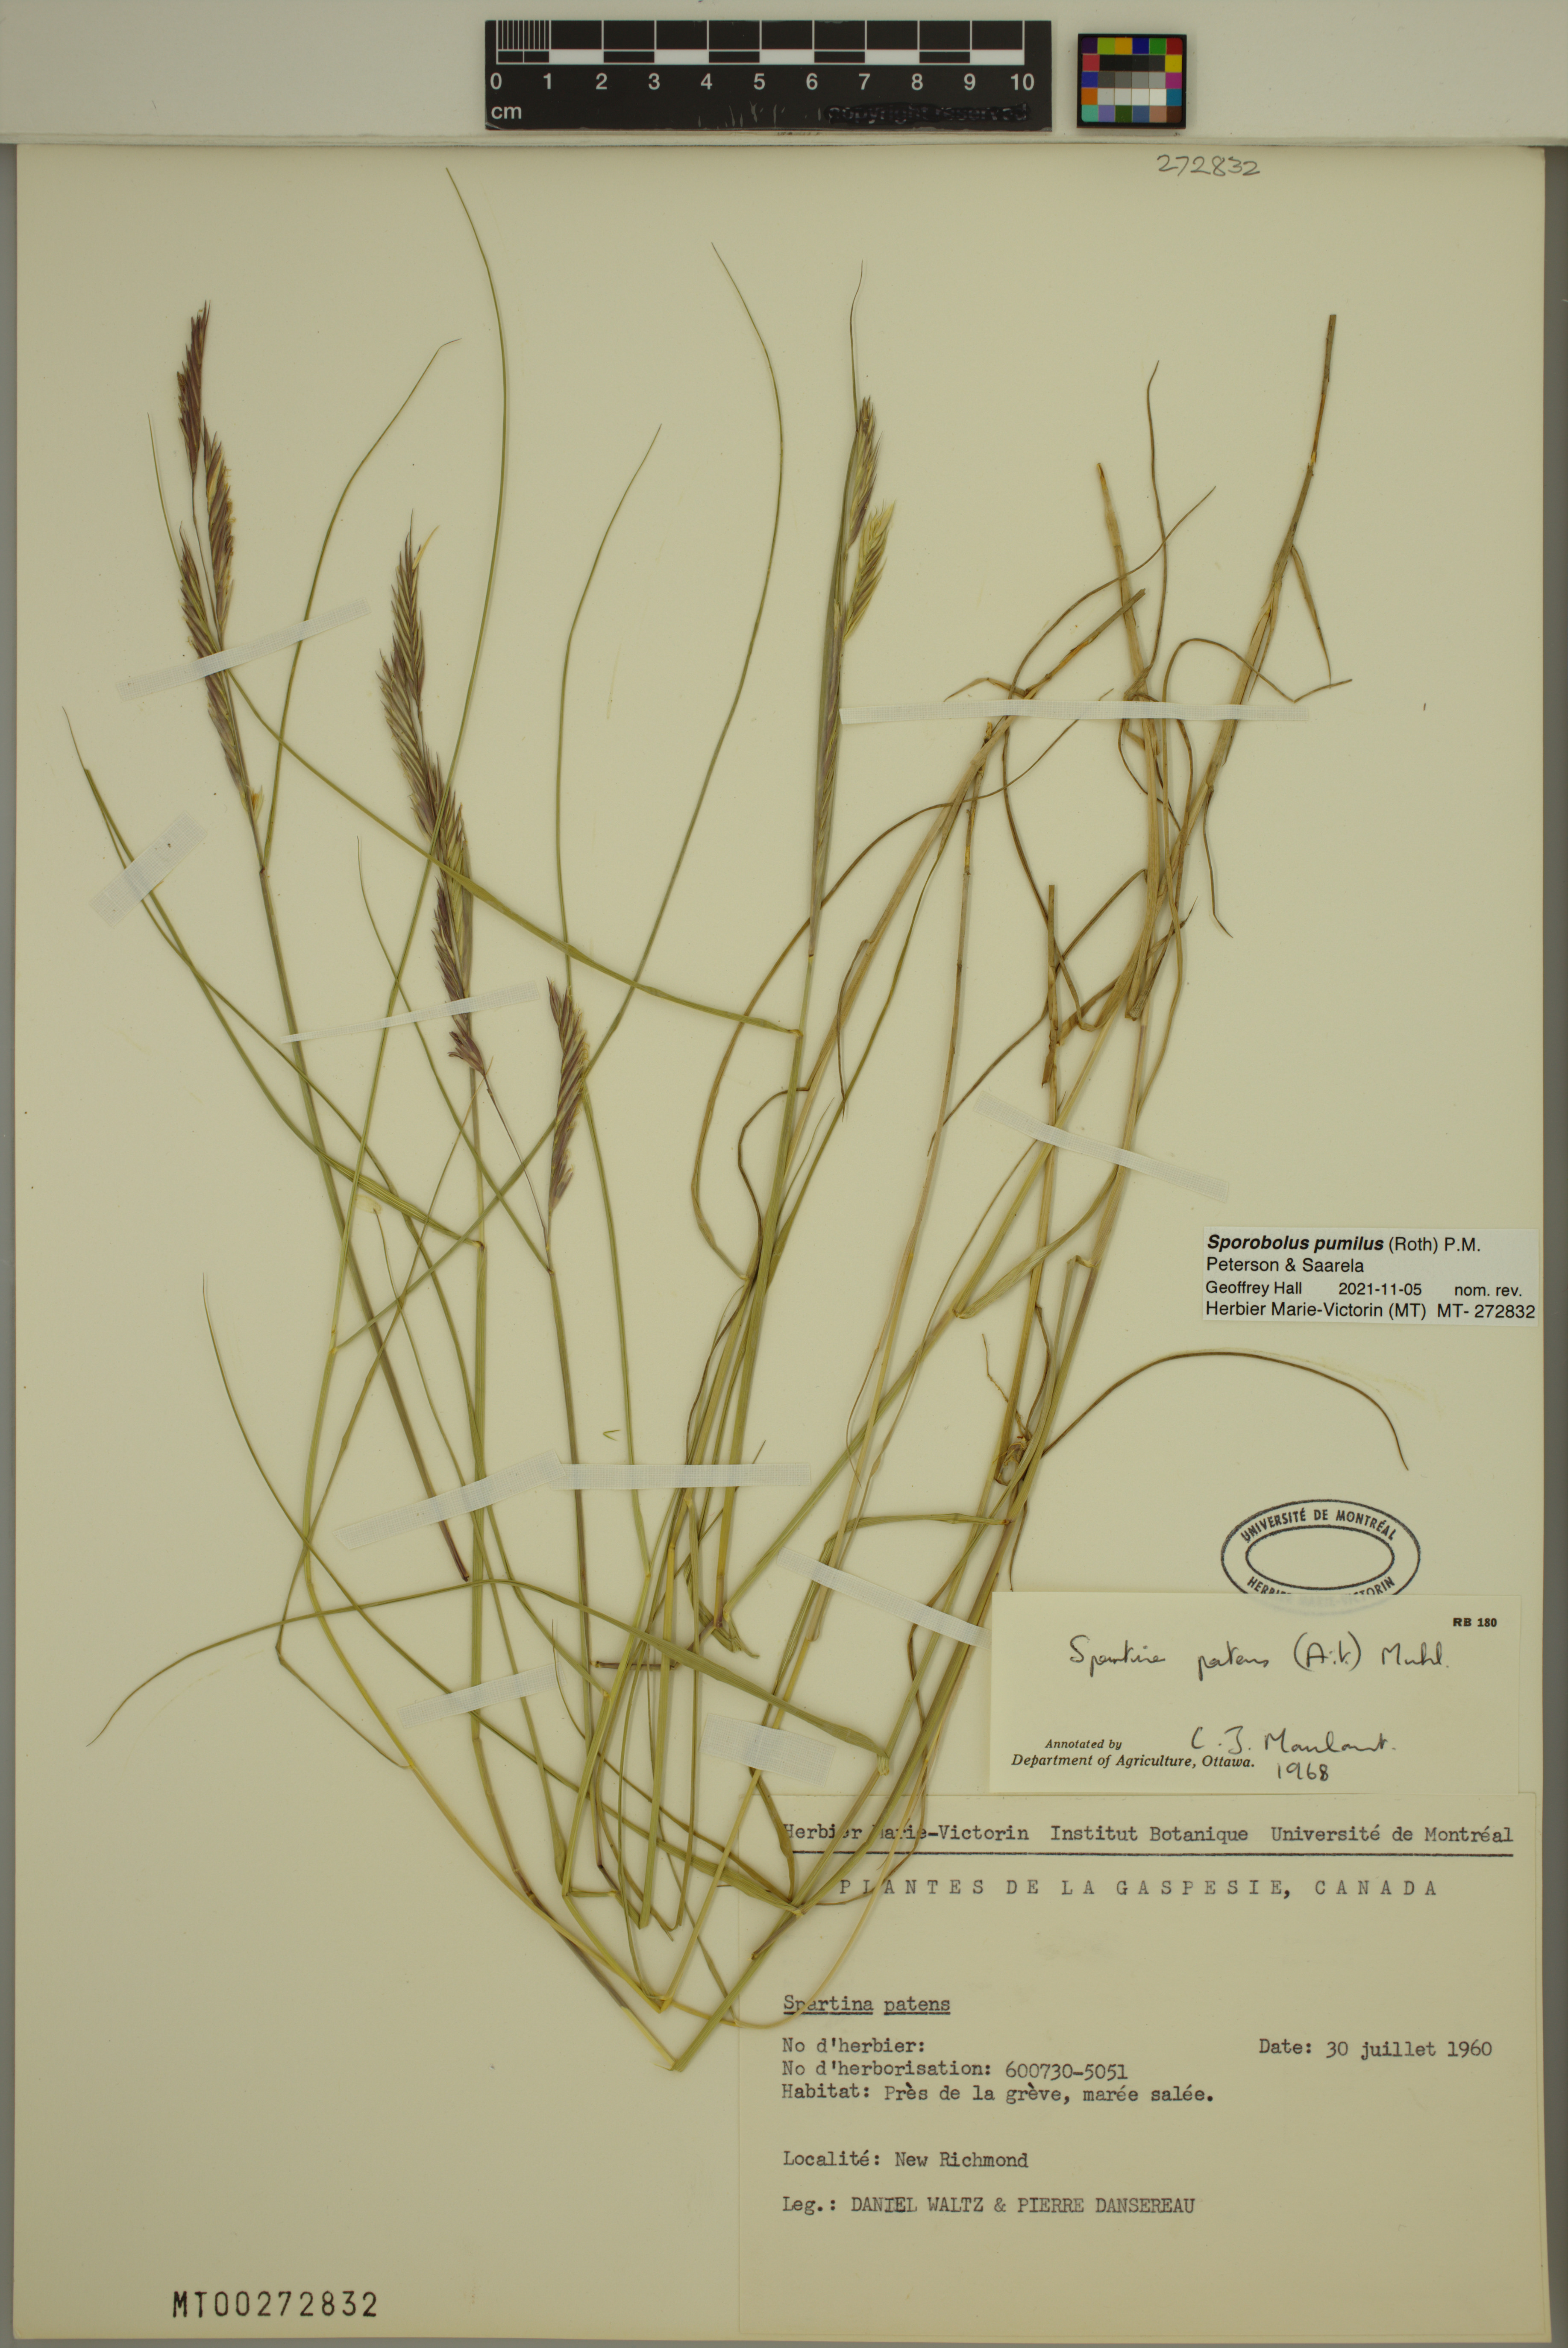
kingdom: Plantae
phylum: Tracheophyta
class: Liliopsida
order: Poales
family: Poaceae
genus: Sporobolus
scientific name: Sporobolus pumilus
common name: Highwater grass
